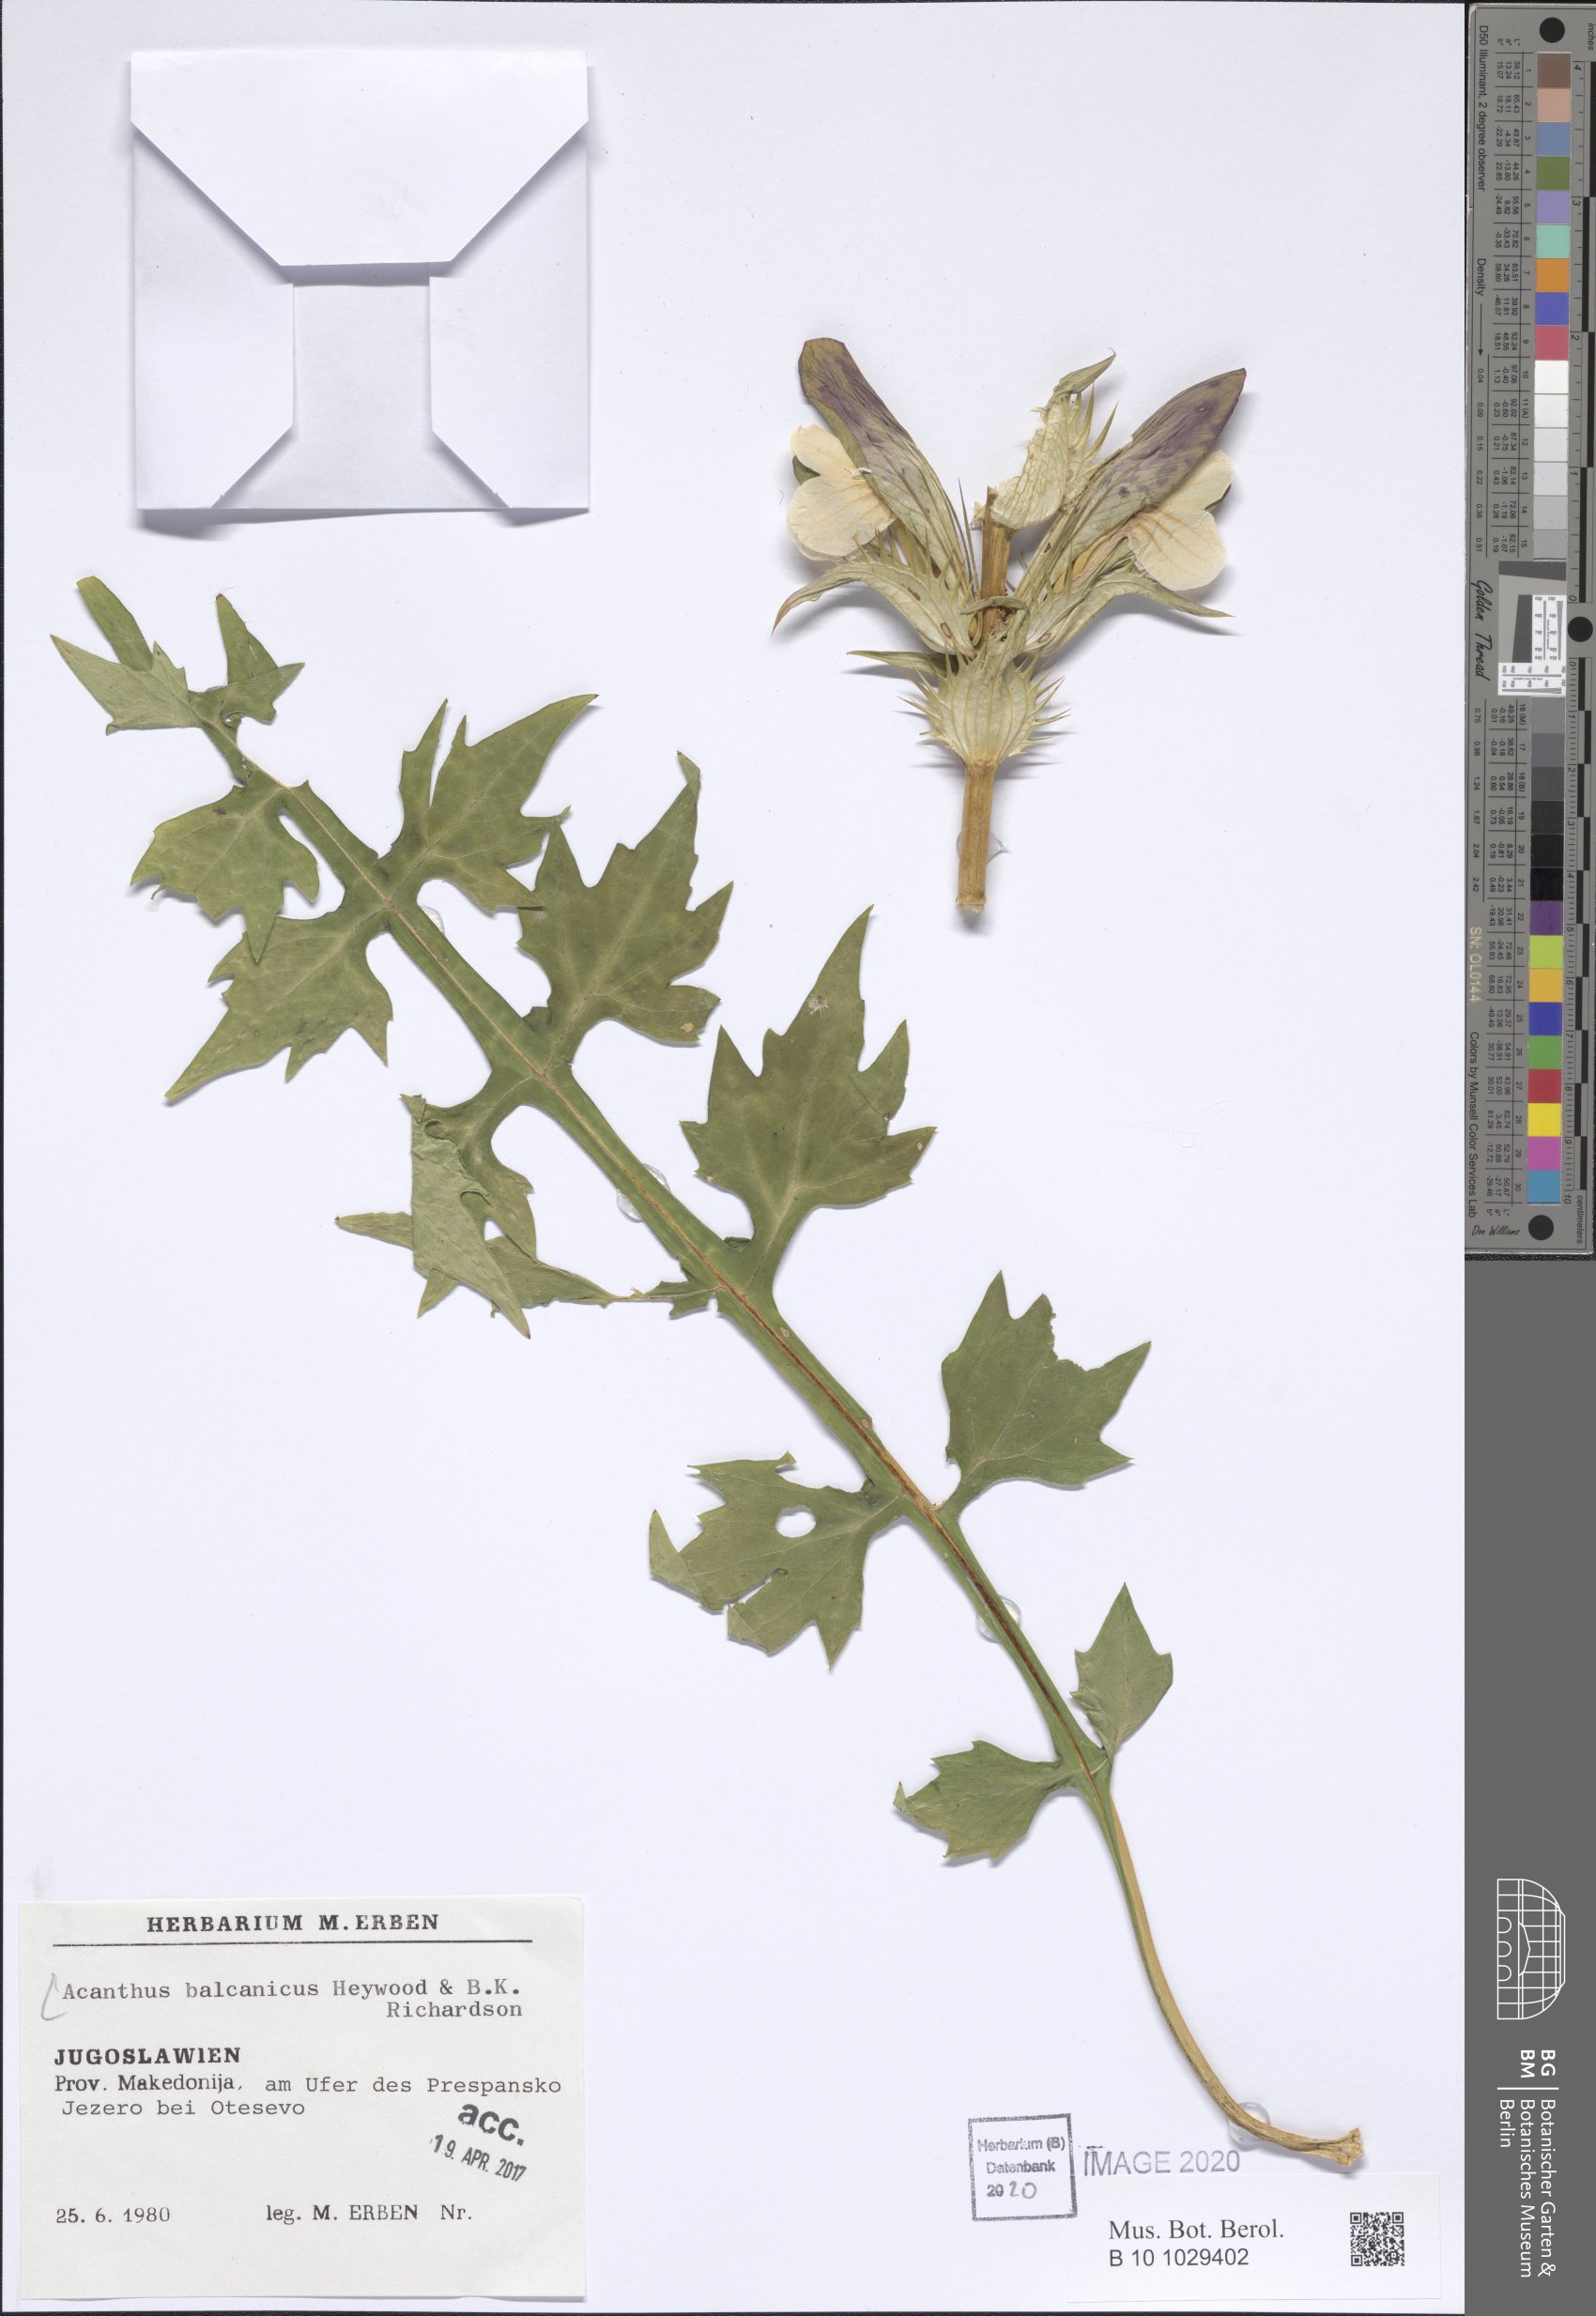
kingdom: Plantae
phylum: Tracheophyta
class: Magnoliopsida
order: Lamiales
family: Acanthaceae
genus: Acanthus
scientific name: Acanthus hungaricus
